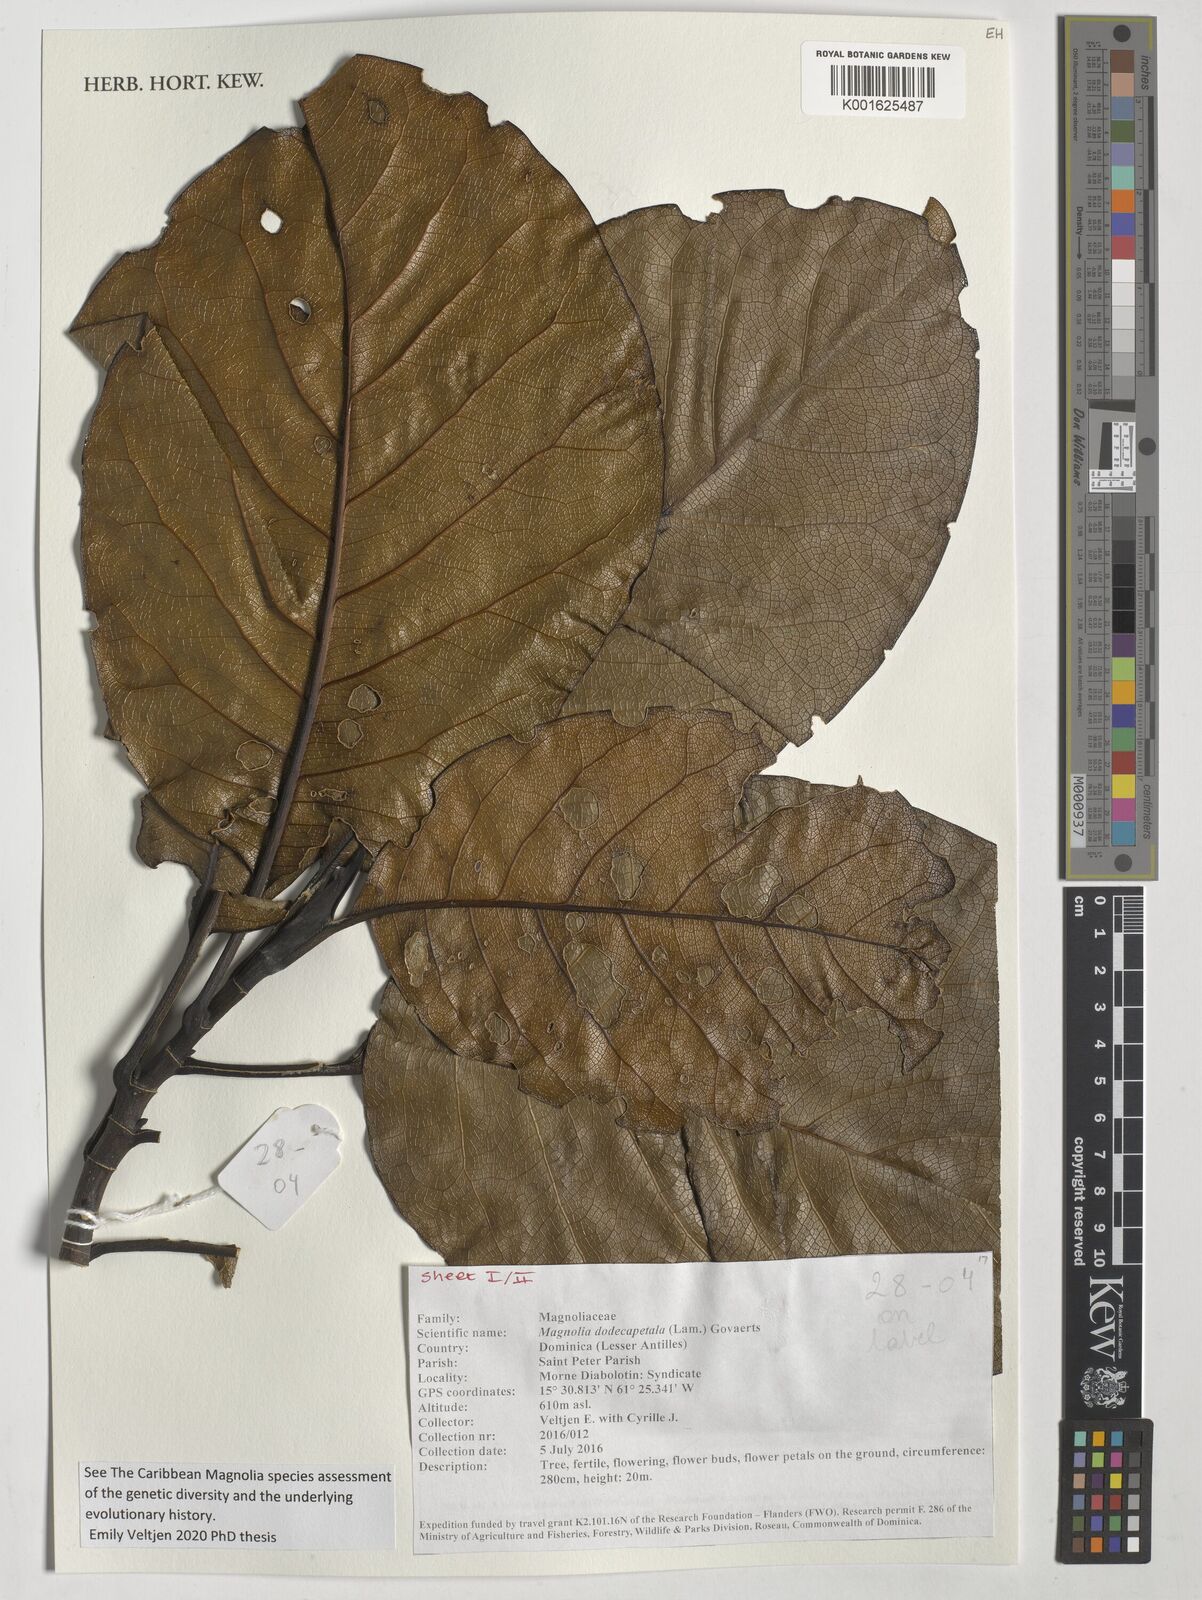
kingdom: Plantae
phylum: Tracheophyta
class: Magnoliopsida
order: Magnoliales
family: Magnoliaceae
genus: Magnolia
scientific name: Magnolia dodecapetala
